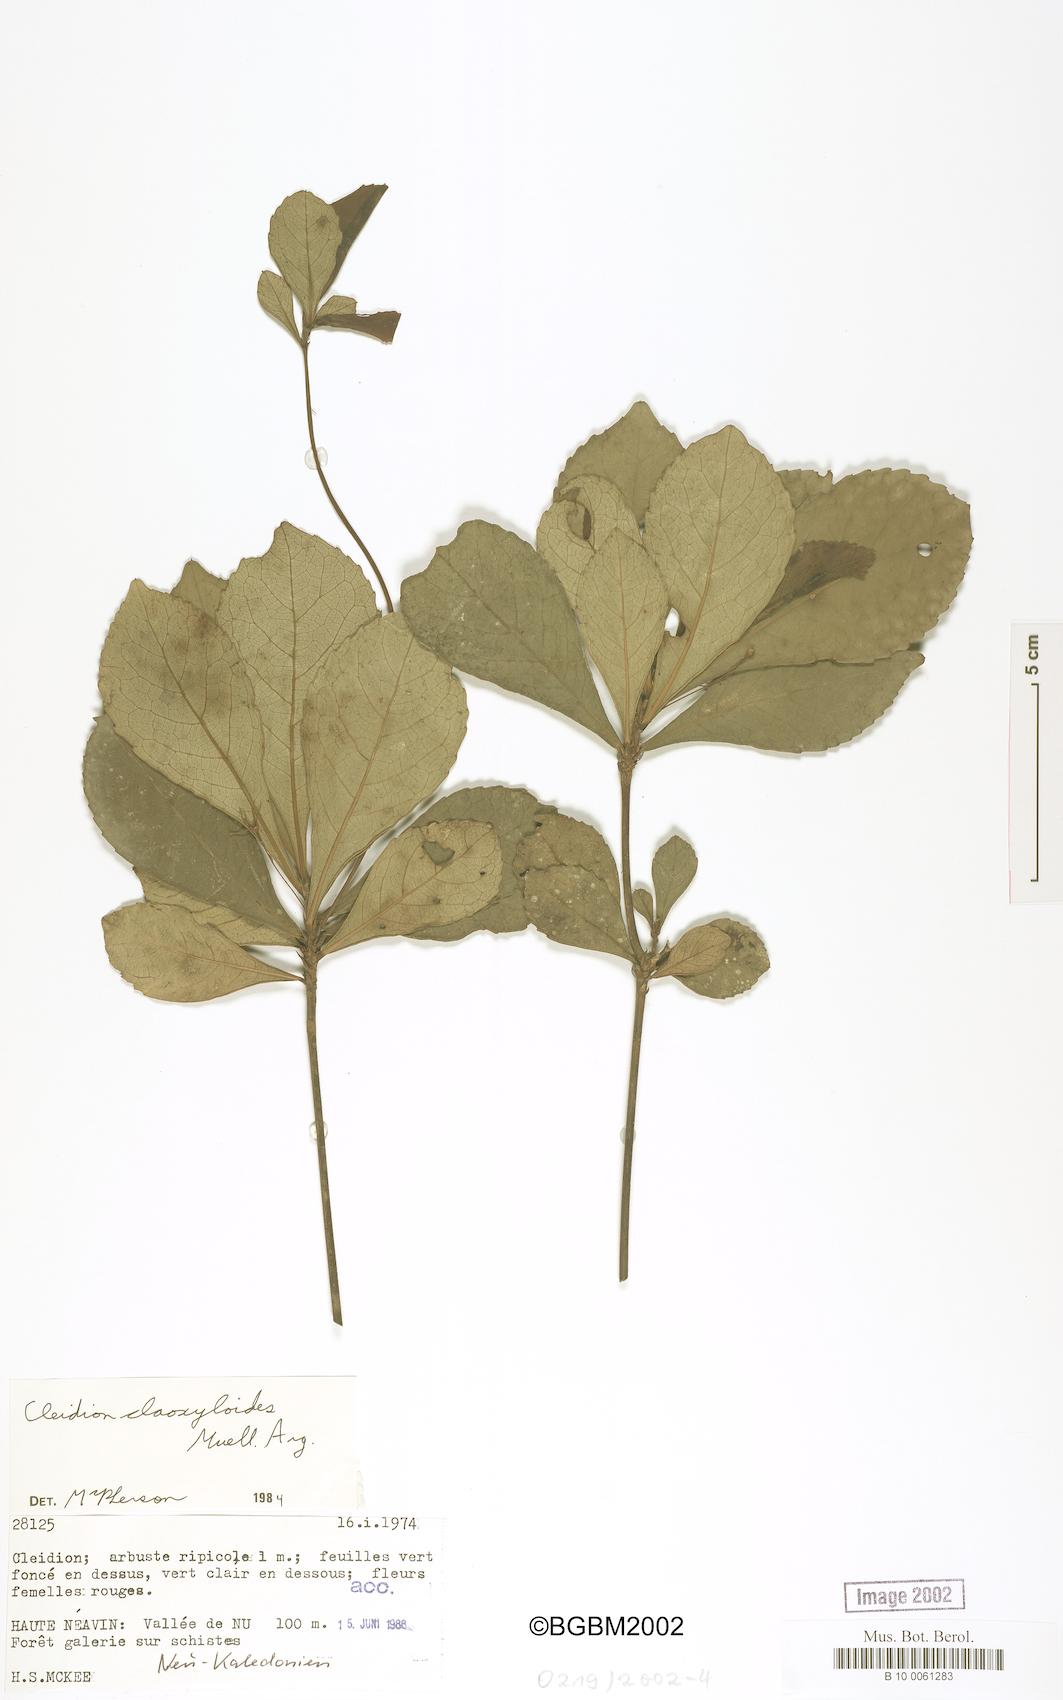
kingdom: Plantae
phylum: Tracheophyta
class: Magnoliopsida
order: Malpighiales
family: Euphorbiaceae
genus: Cleidion
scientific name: Cleidion claoxyloides
